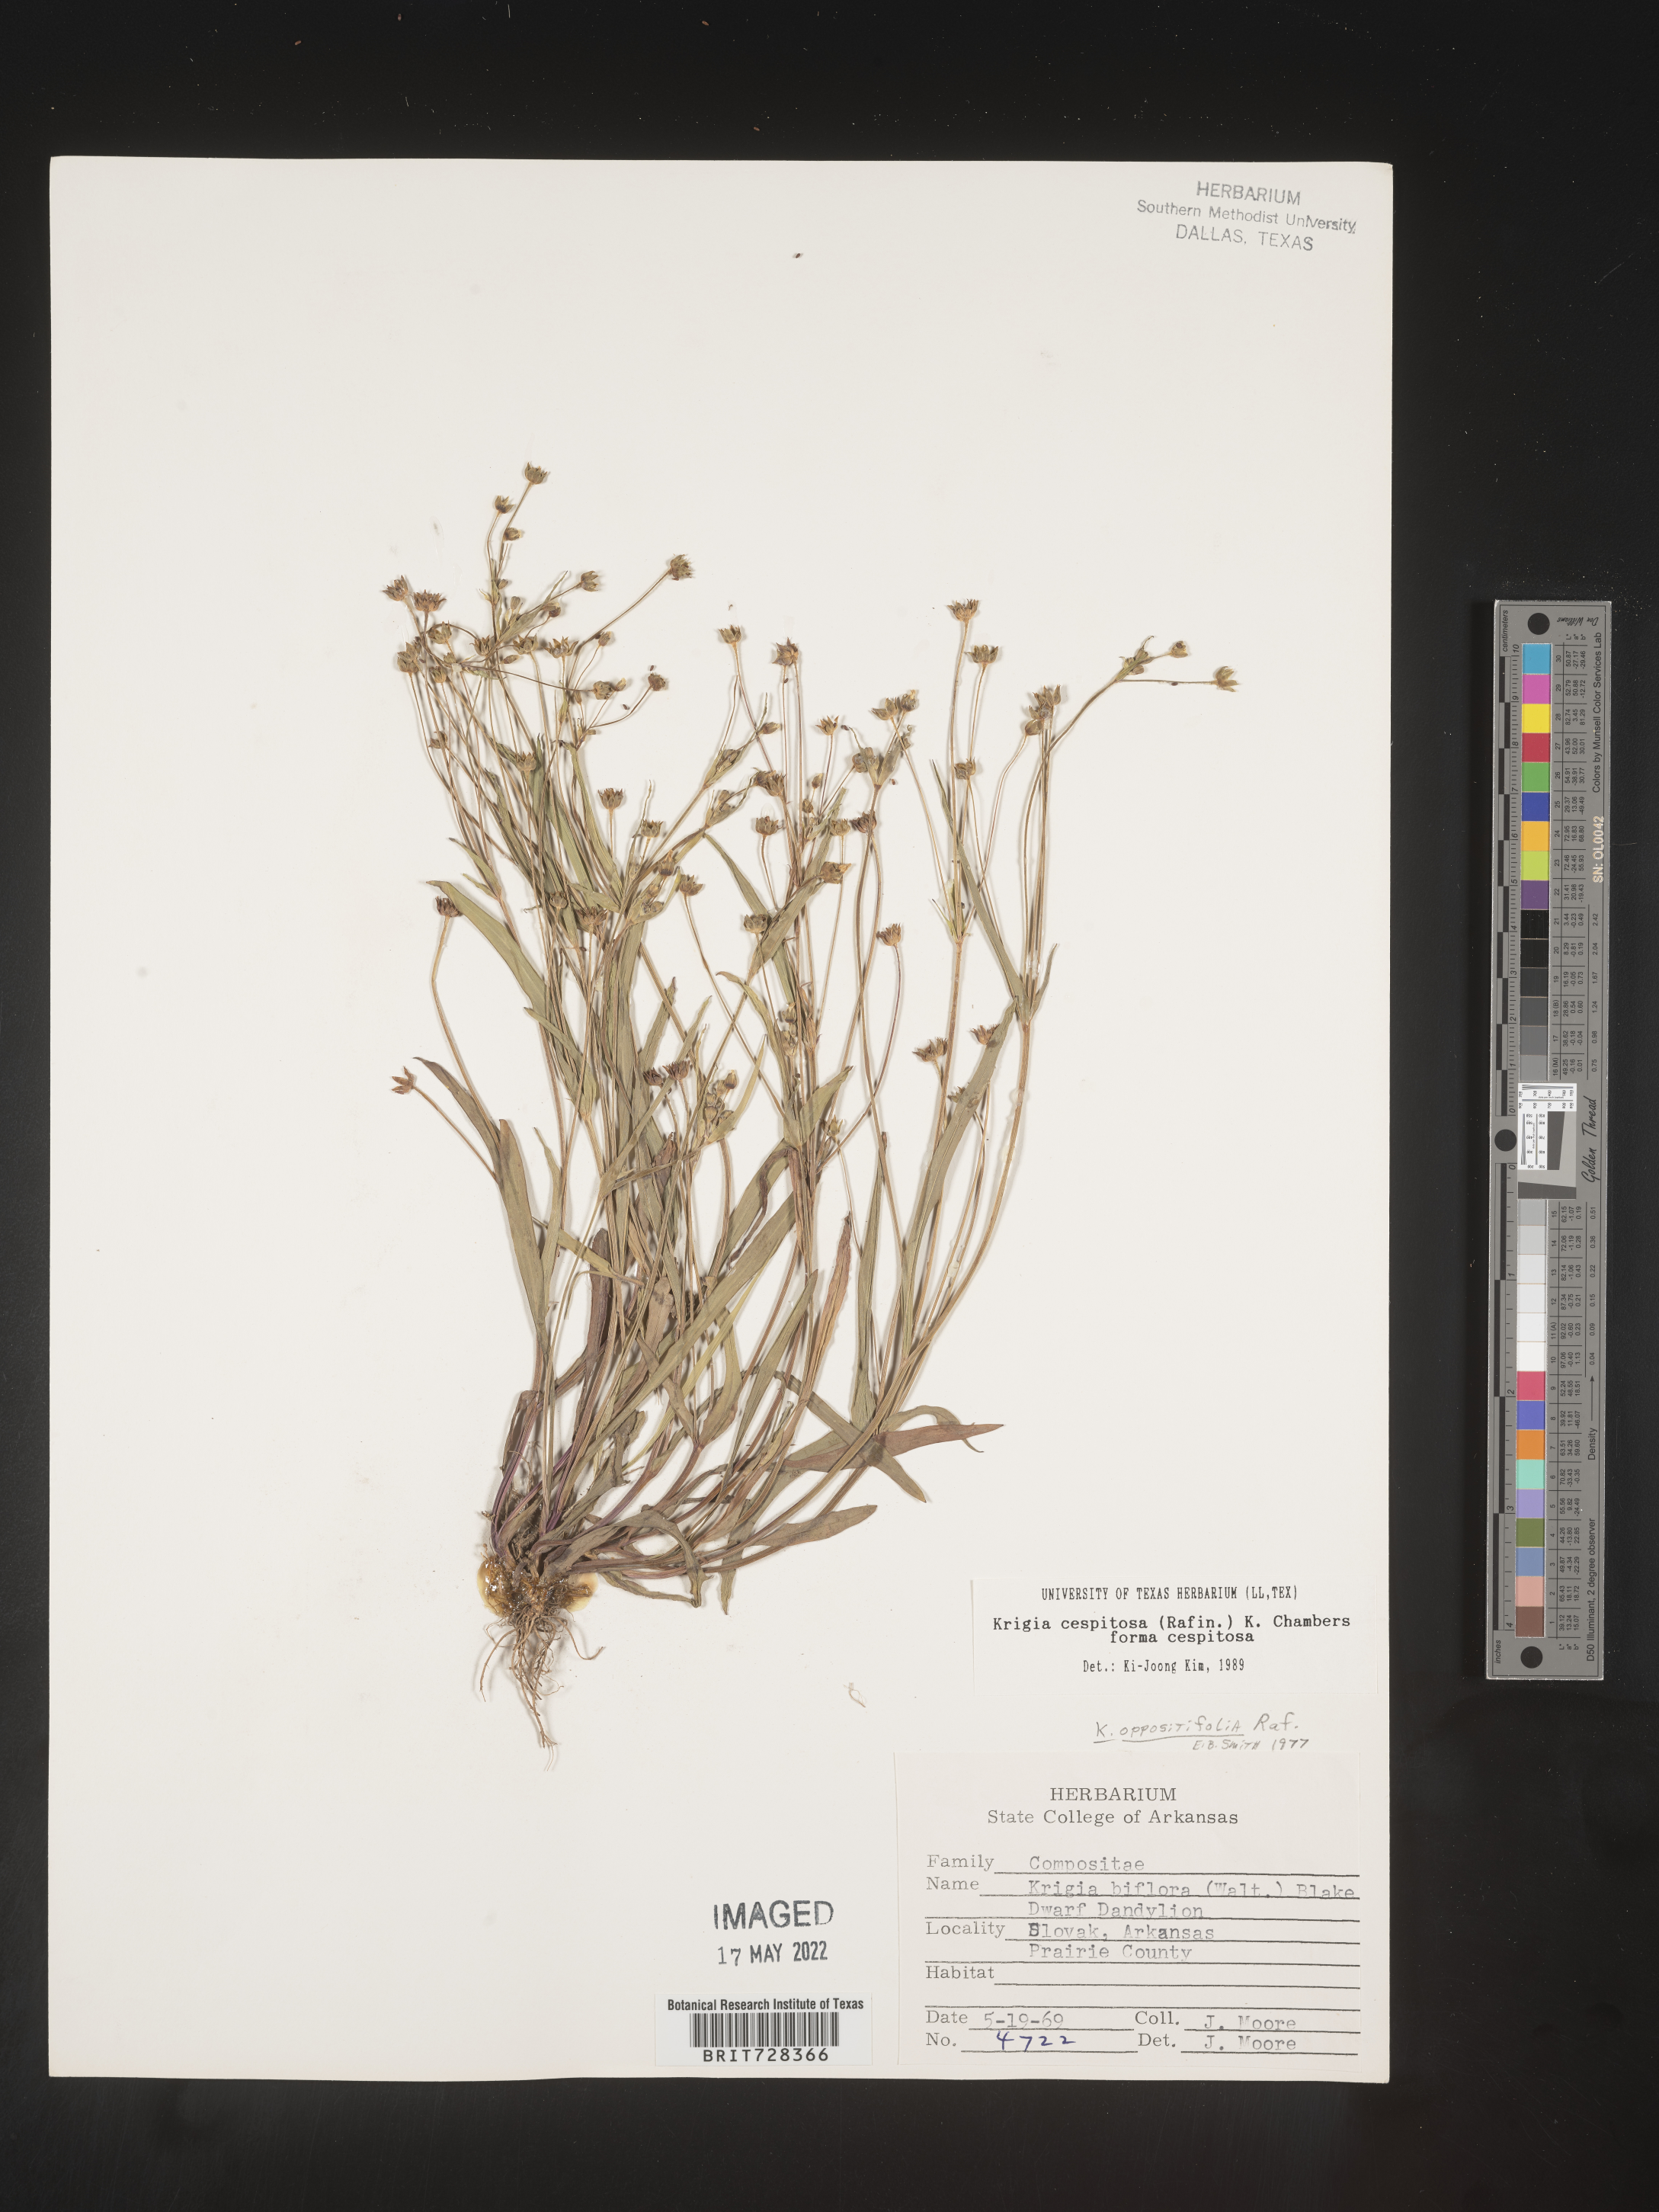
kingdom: Plantae
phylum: Tracheophyta
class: Magnoliopsida
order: Asterales
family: Asteraceae
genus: Krigia
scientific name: Krigia caespitosa
